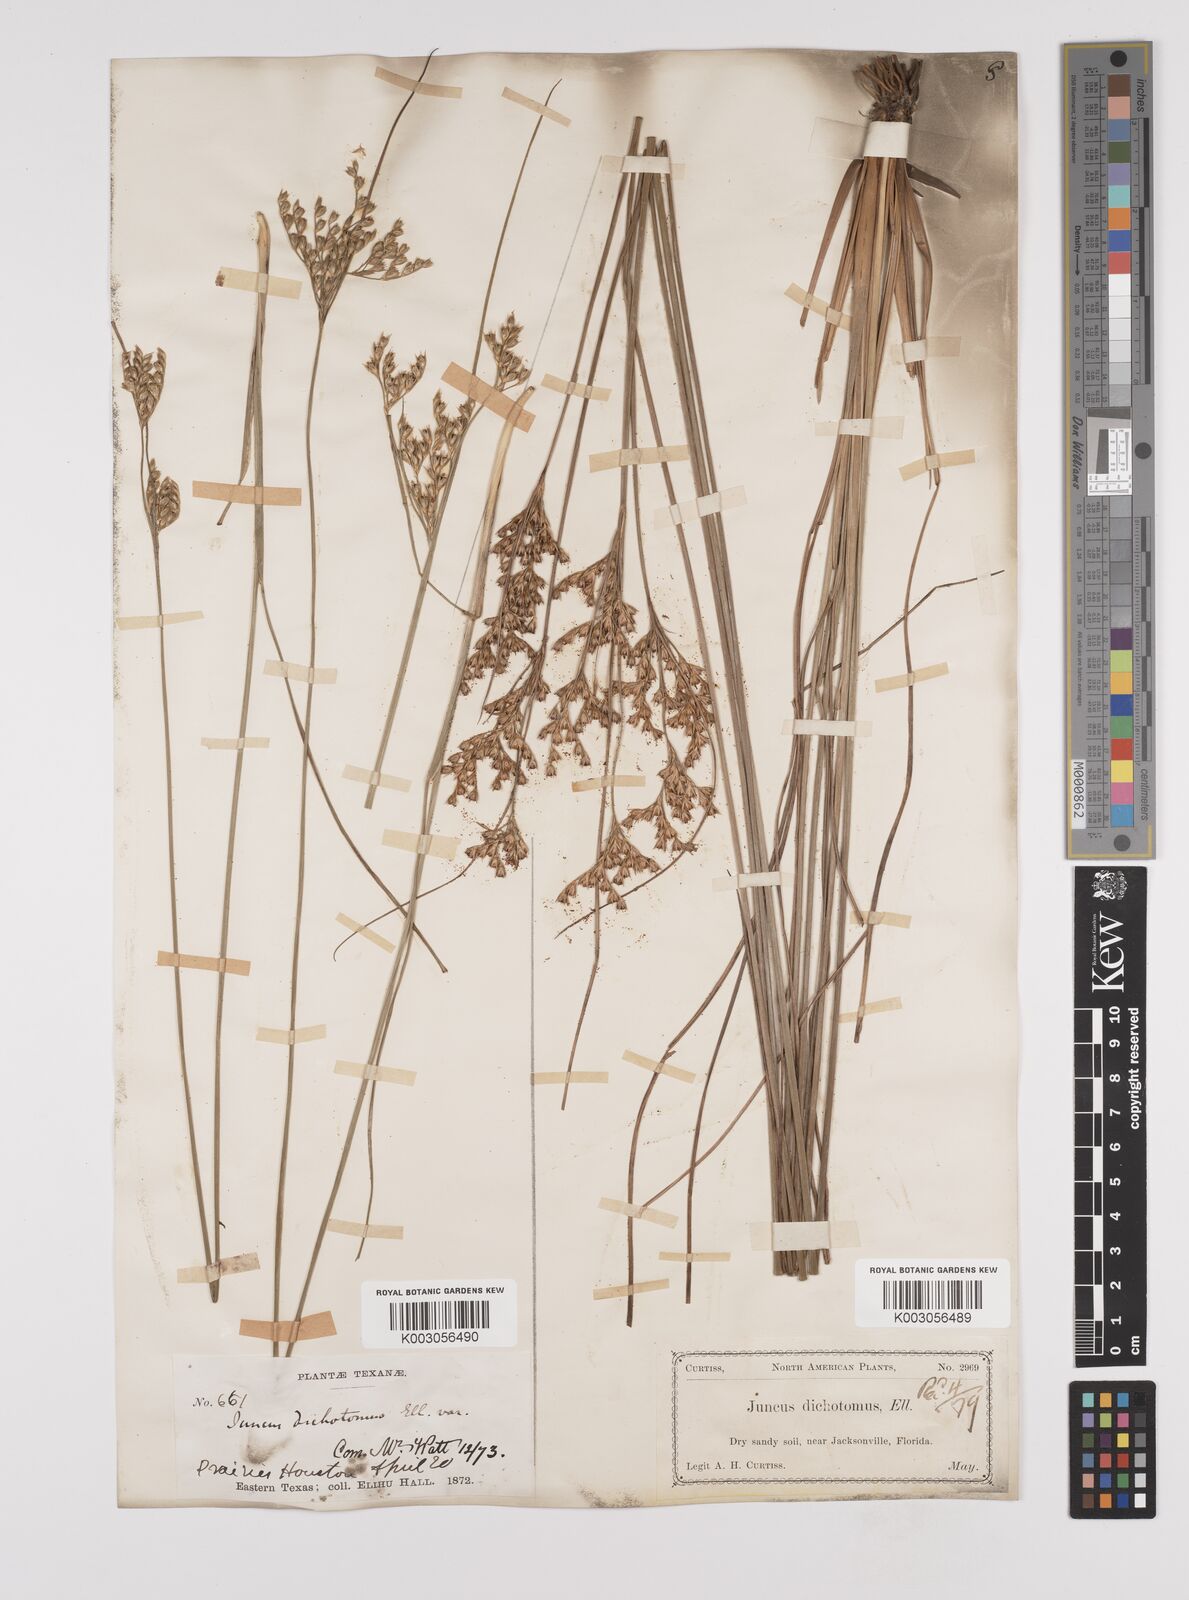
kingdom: Plantae
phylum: Tracheophyta
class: Liliopsida
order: Poales
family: Juncaceae
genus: Juncus
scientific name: Juncus dichotomus
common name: Forked rush
